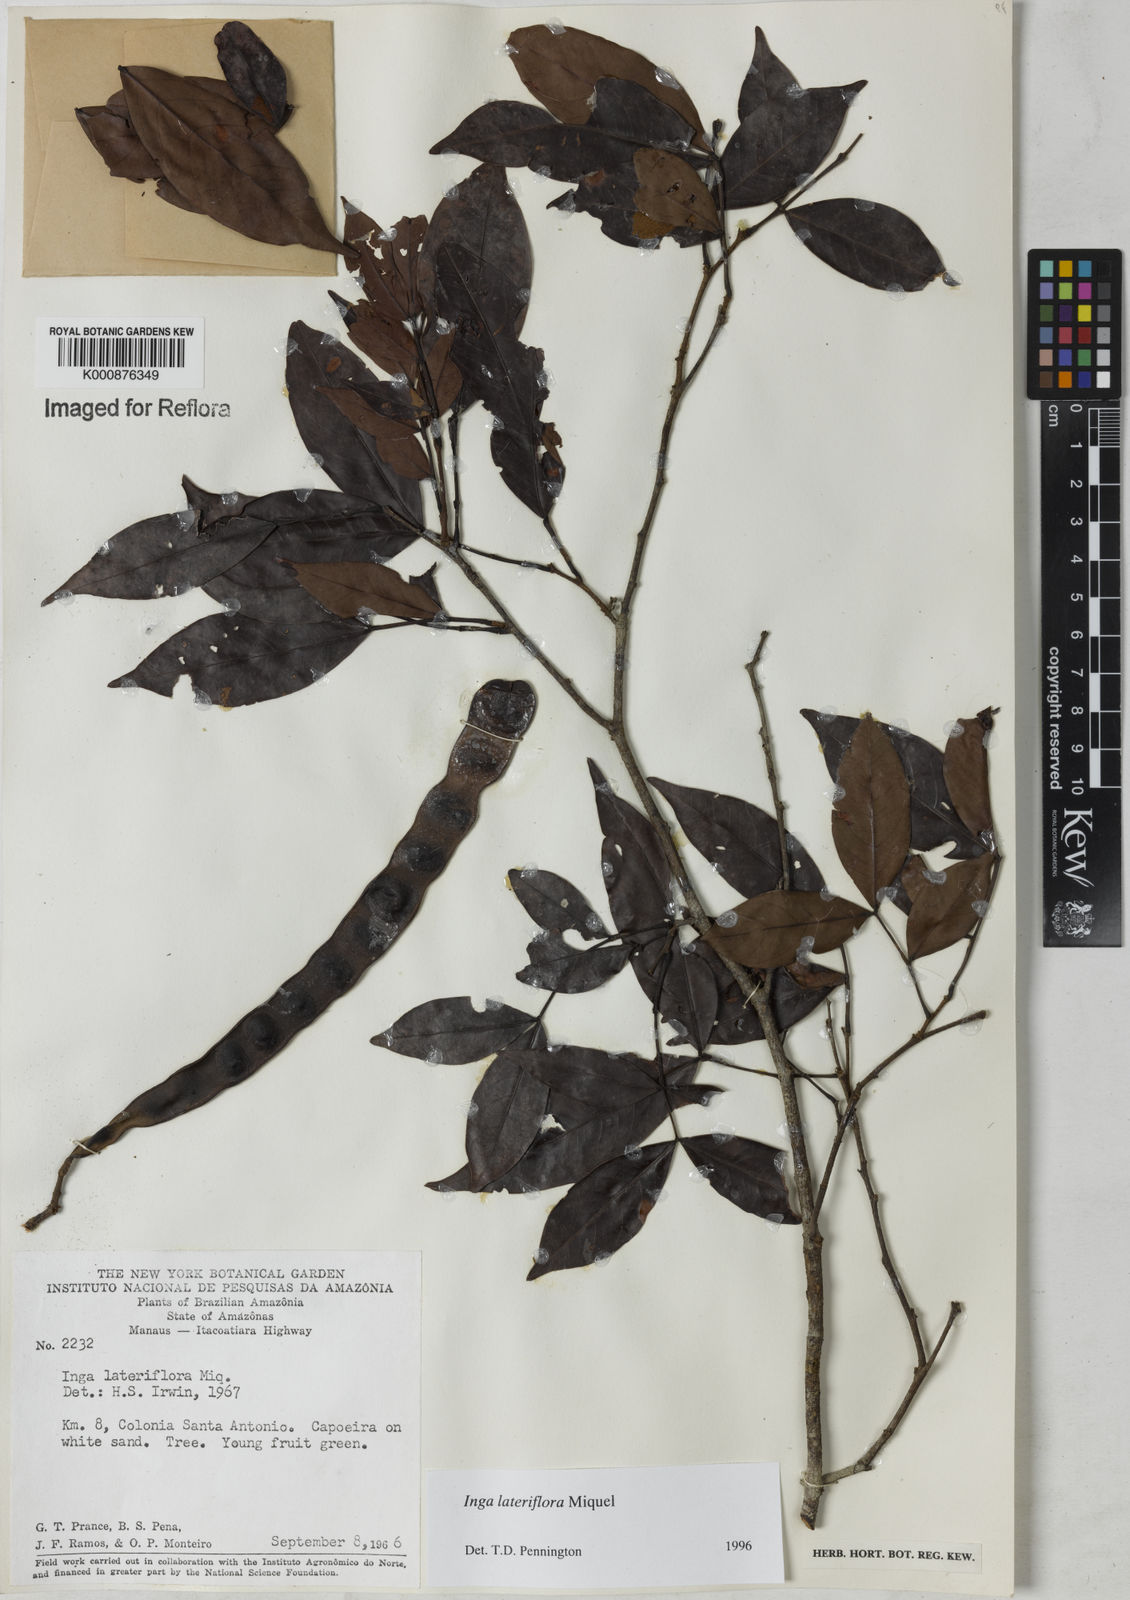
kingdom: Plantae
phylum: Tracheophyta
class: Magnoliopsida
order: Fabales
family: Fabaceae
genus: Inga
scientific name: Inga lateriflora
